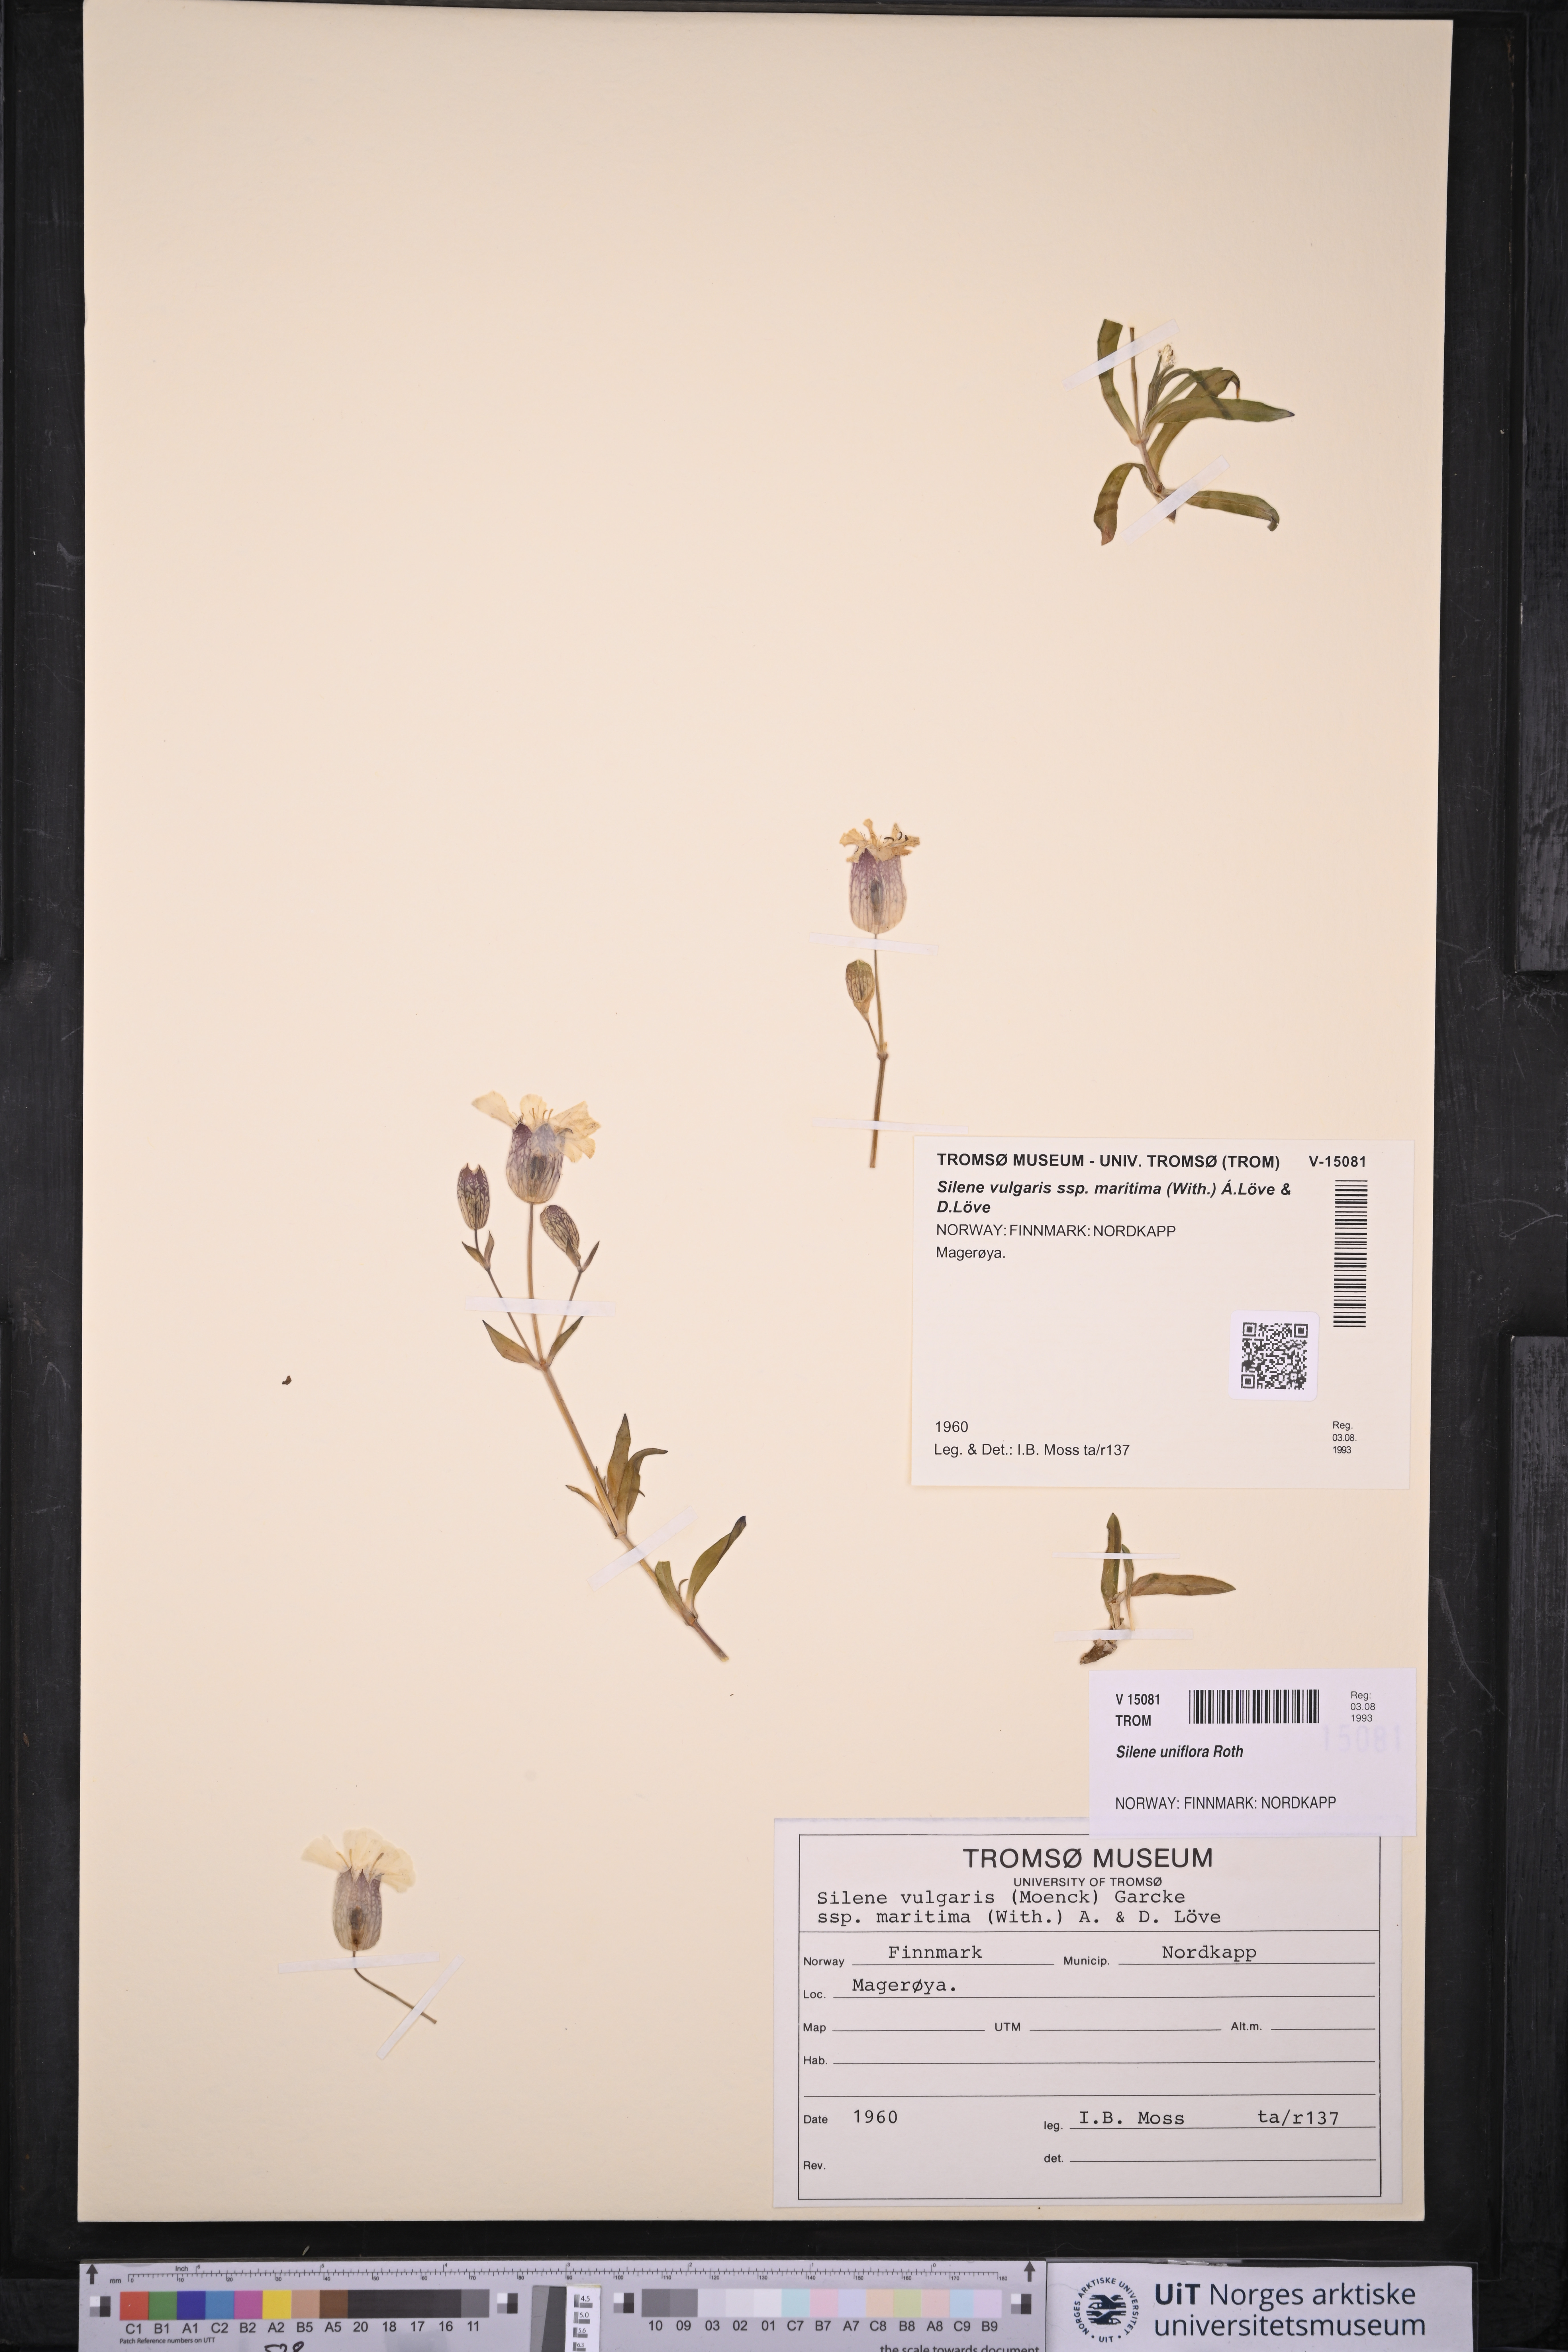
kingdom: Plantae
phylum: Tracheophyta
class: Magnoliopsida
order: Caryophyllales
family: Caryophyllaceae
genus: Silene
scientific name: Silene uniflora
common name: Sea campion
